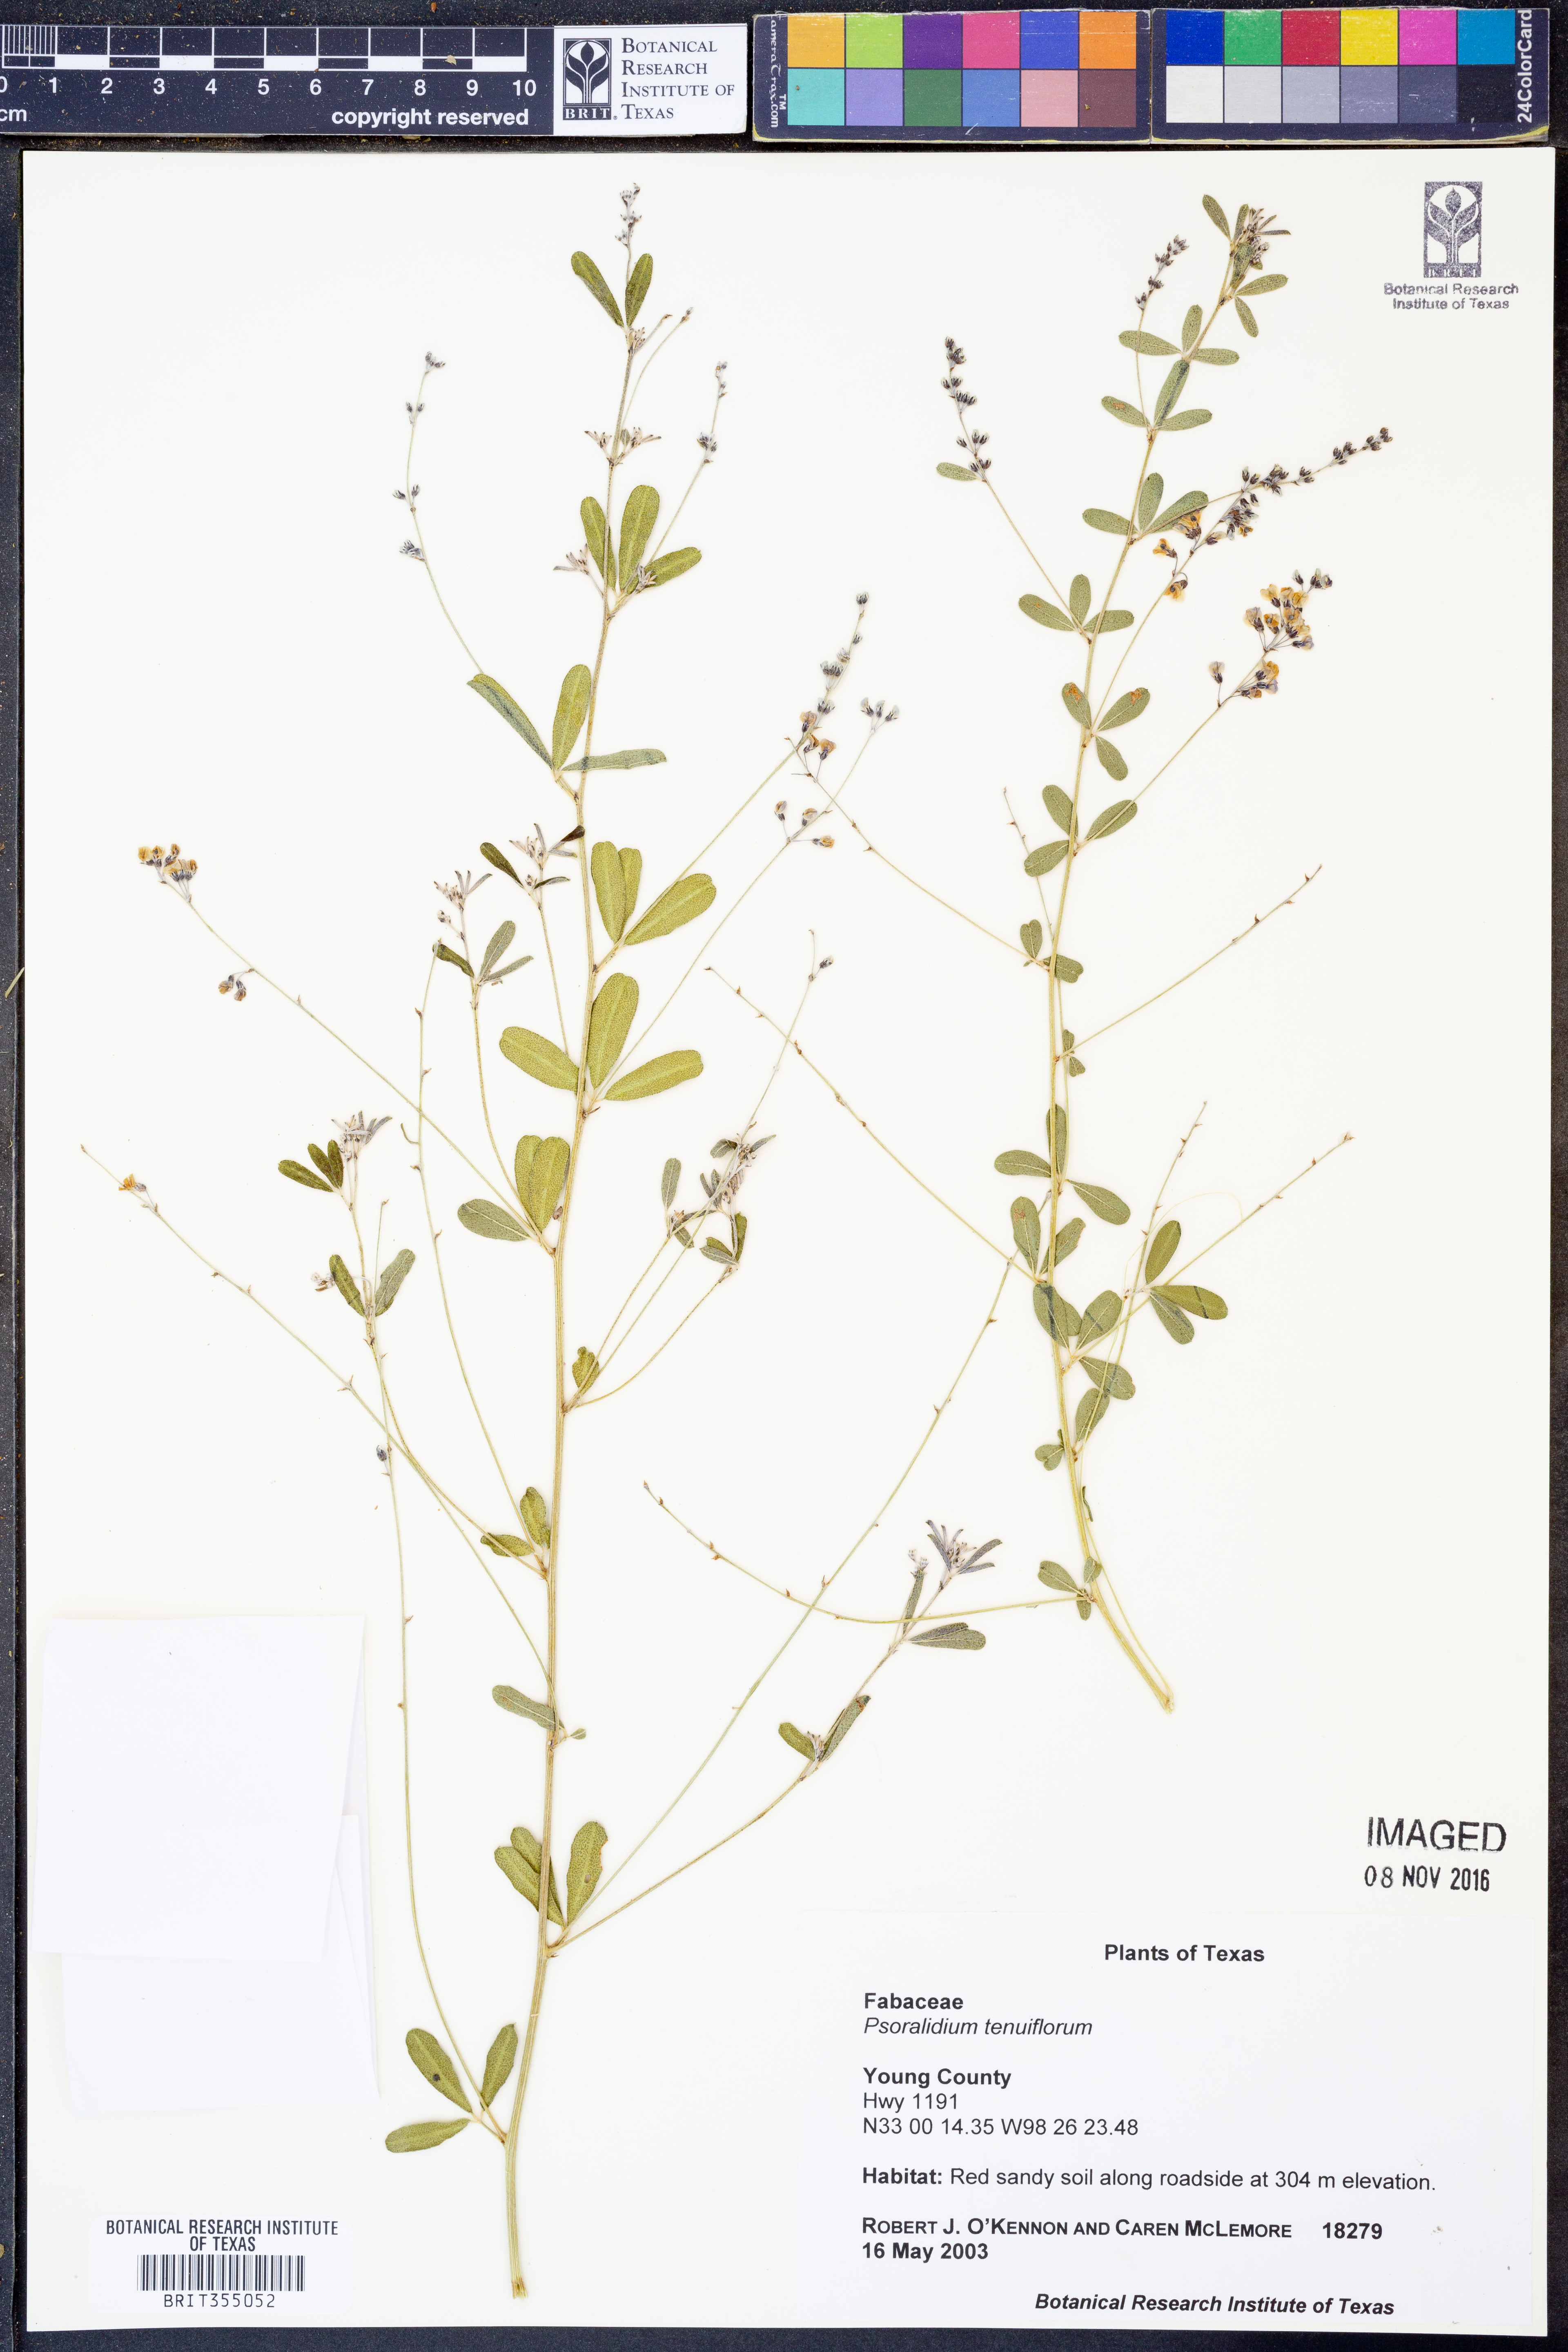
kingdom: Plantae
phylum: Tracheophyta
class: Magnoliopsida
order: Fabales
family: Fabaceae
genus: Pediomelum
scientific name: Pediomelum tenuiflorum
